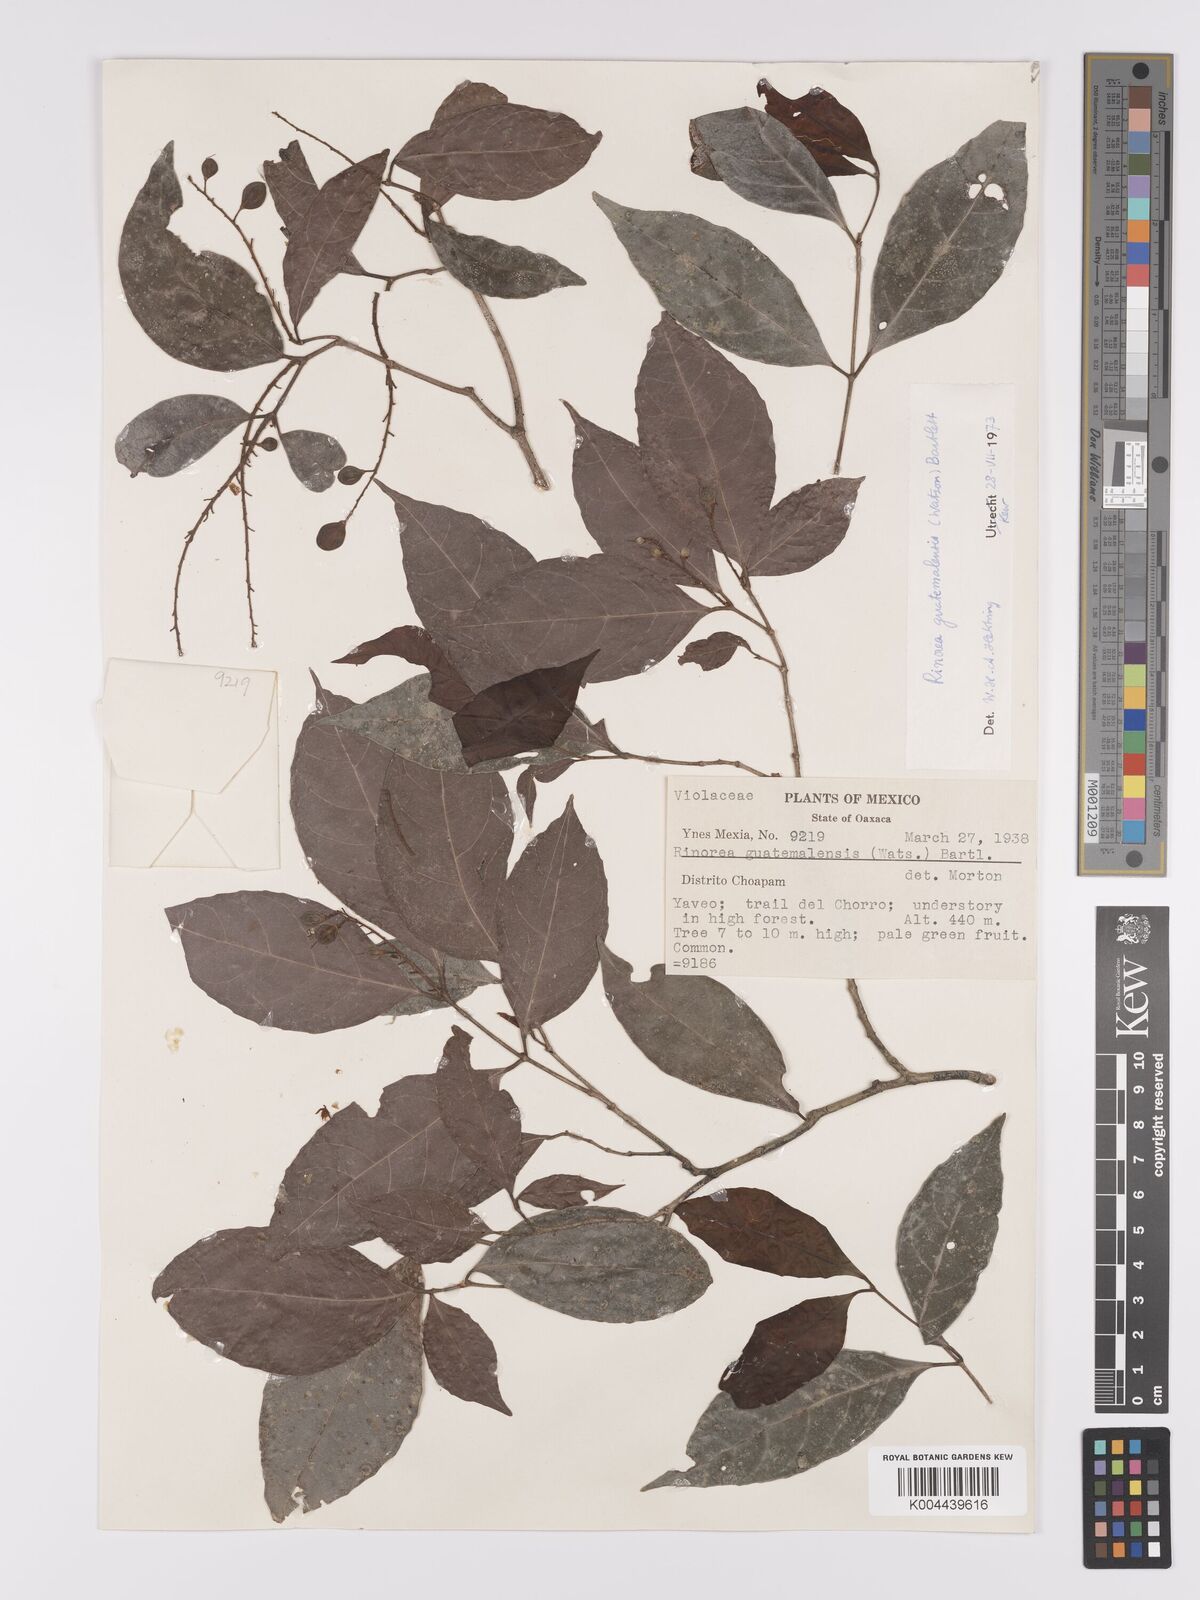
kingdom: Plantae
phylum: Tracheophyta
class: Magnoliopsida
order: Malpighiales
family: Violaceae
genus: Rinorea
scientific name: Rinorea guatemalensis
